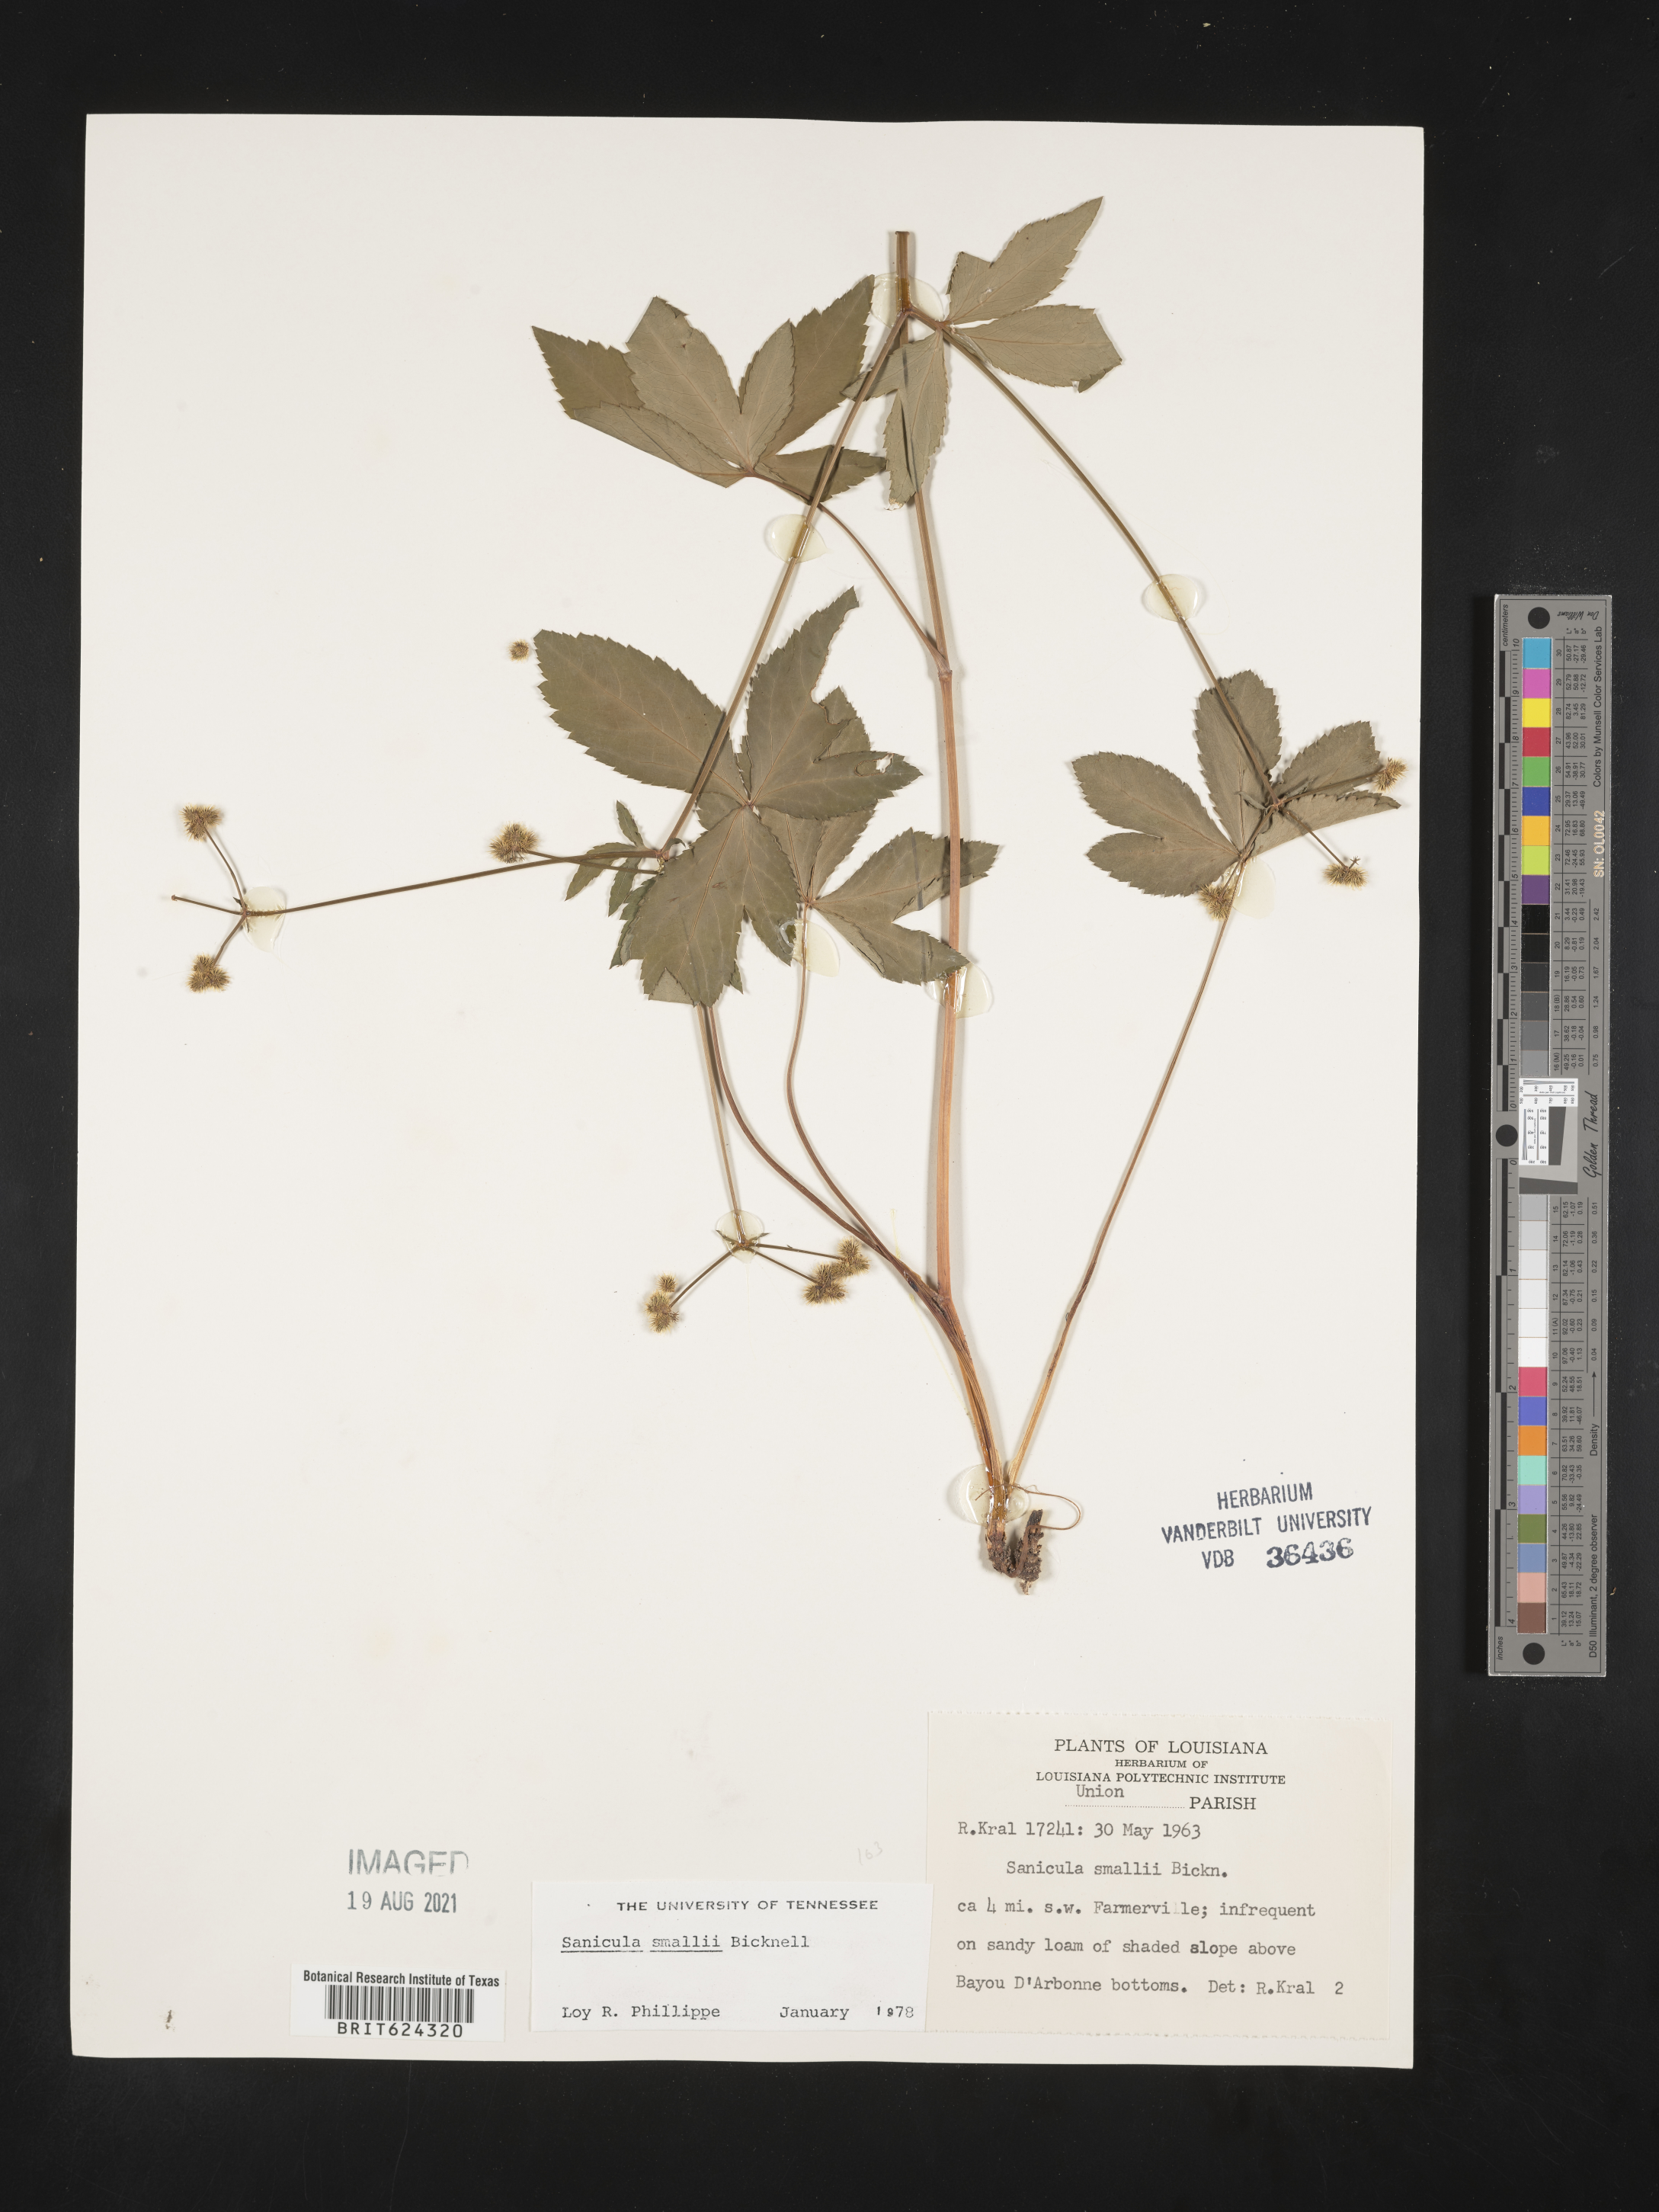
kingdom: Plantae
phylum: Tracheophyta
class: Magnoliopsida
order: Apiales
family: Apiaceae
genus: Sanicula
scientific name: Sanicula smallii
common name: Small's black snakeroot
